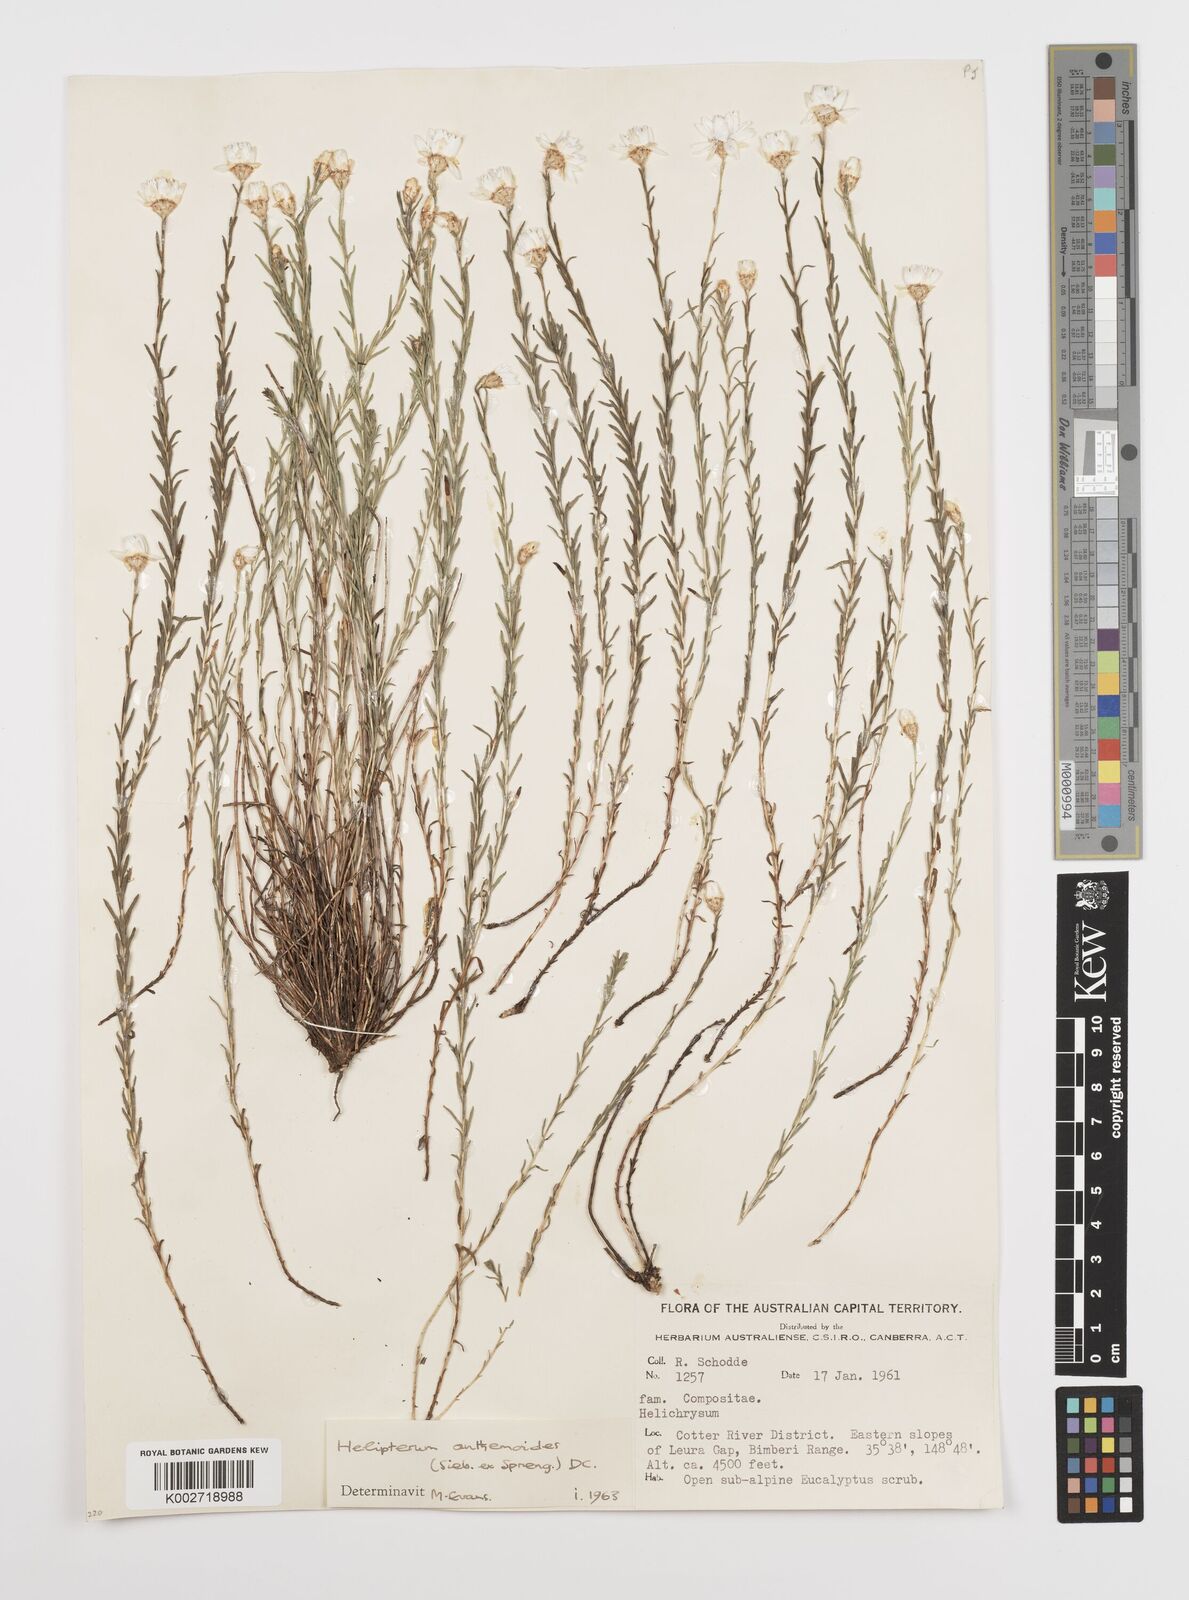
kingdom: Plantae
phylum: Tracheophyta
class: Magnoliopsida
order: Asterales
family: Asteraceae
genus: Rhodanthe
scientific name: Rhodanthe anthemoides
